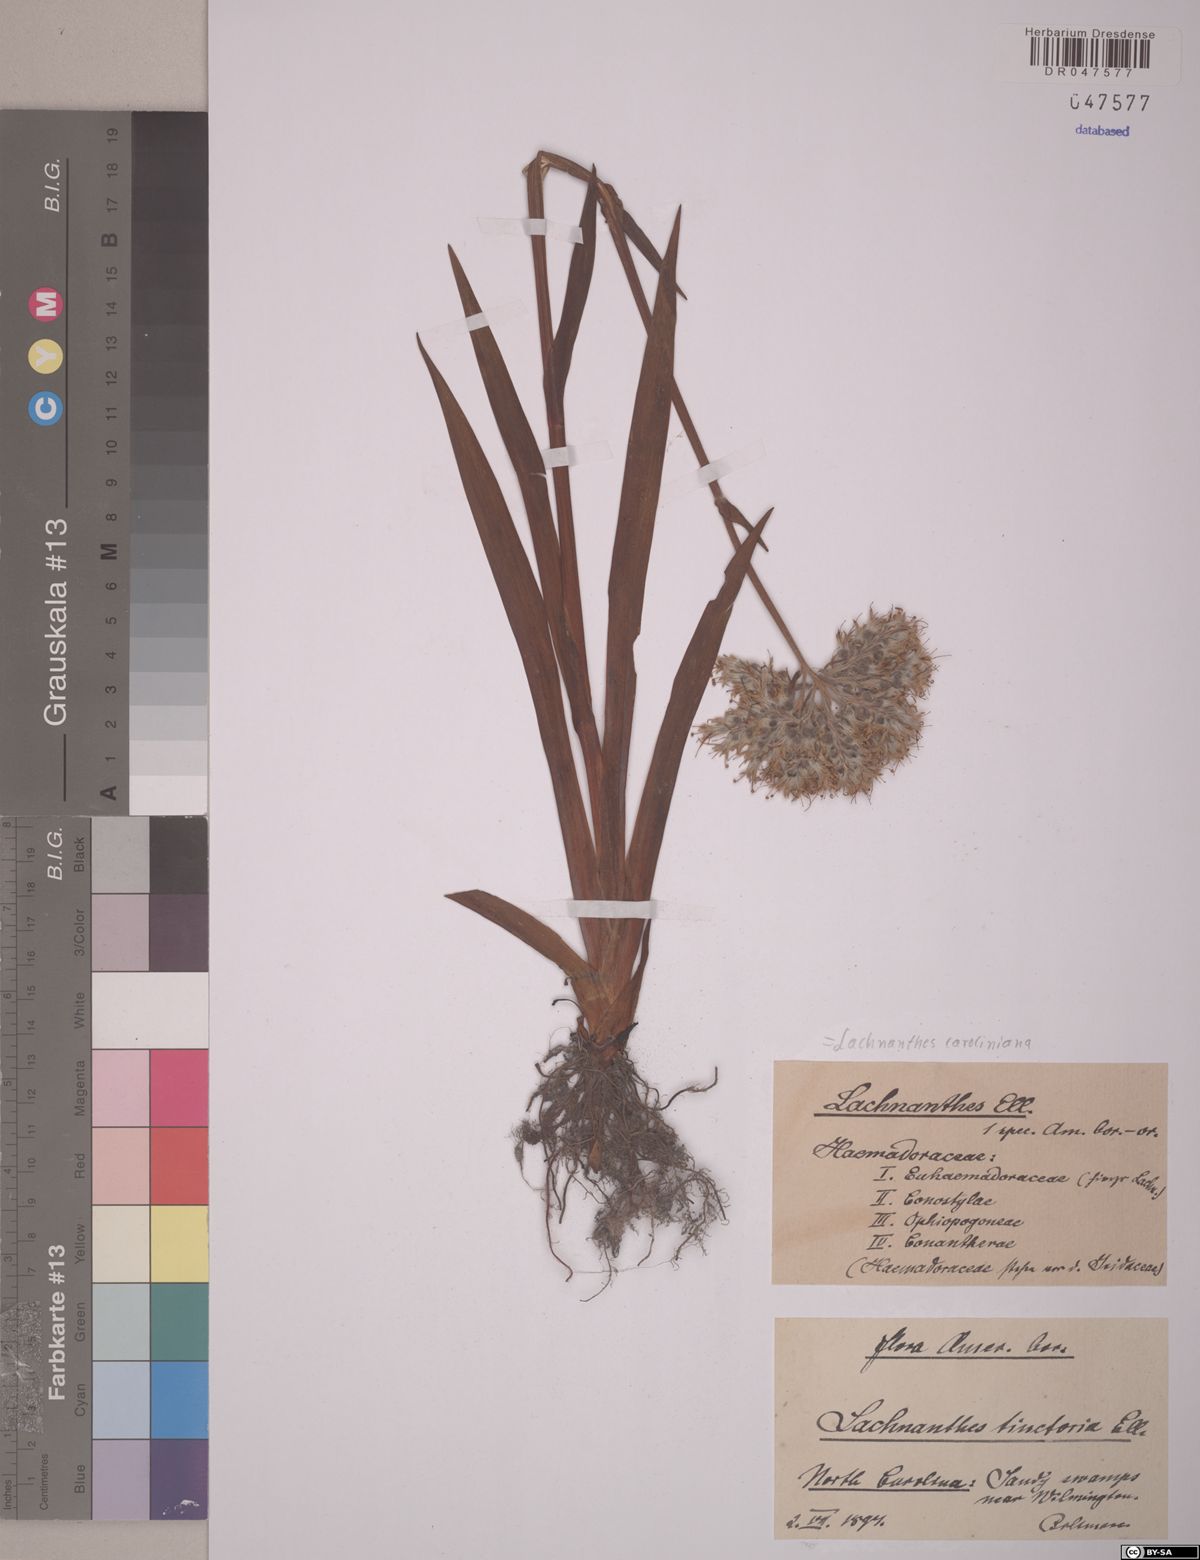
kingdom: Plantae
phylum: Tracheophyta
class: Liliopsida
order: Commelinales
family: Haemodoraceae
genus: Lachnanthes
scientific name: Lachnanthes caroliniana
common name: Carolina redroot
